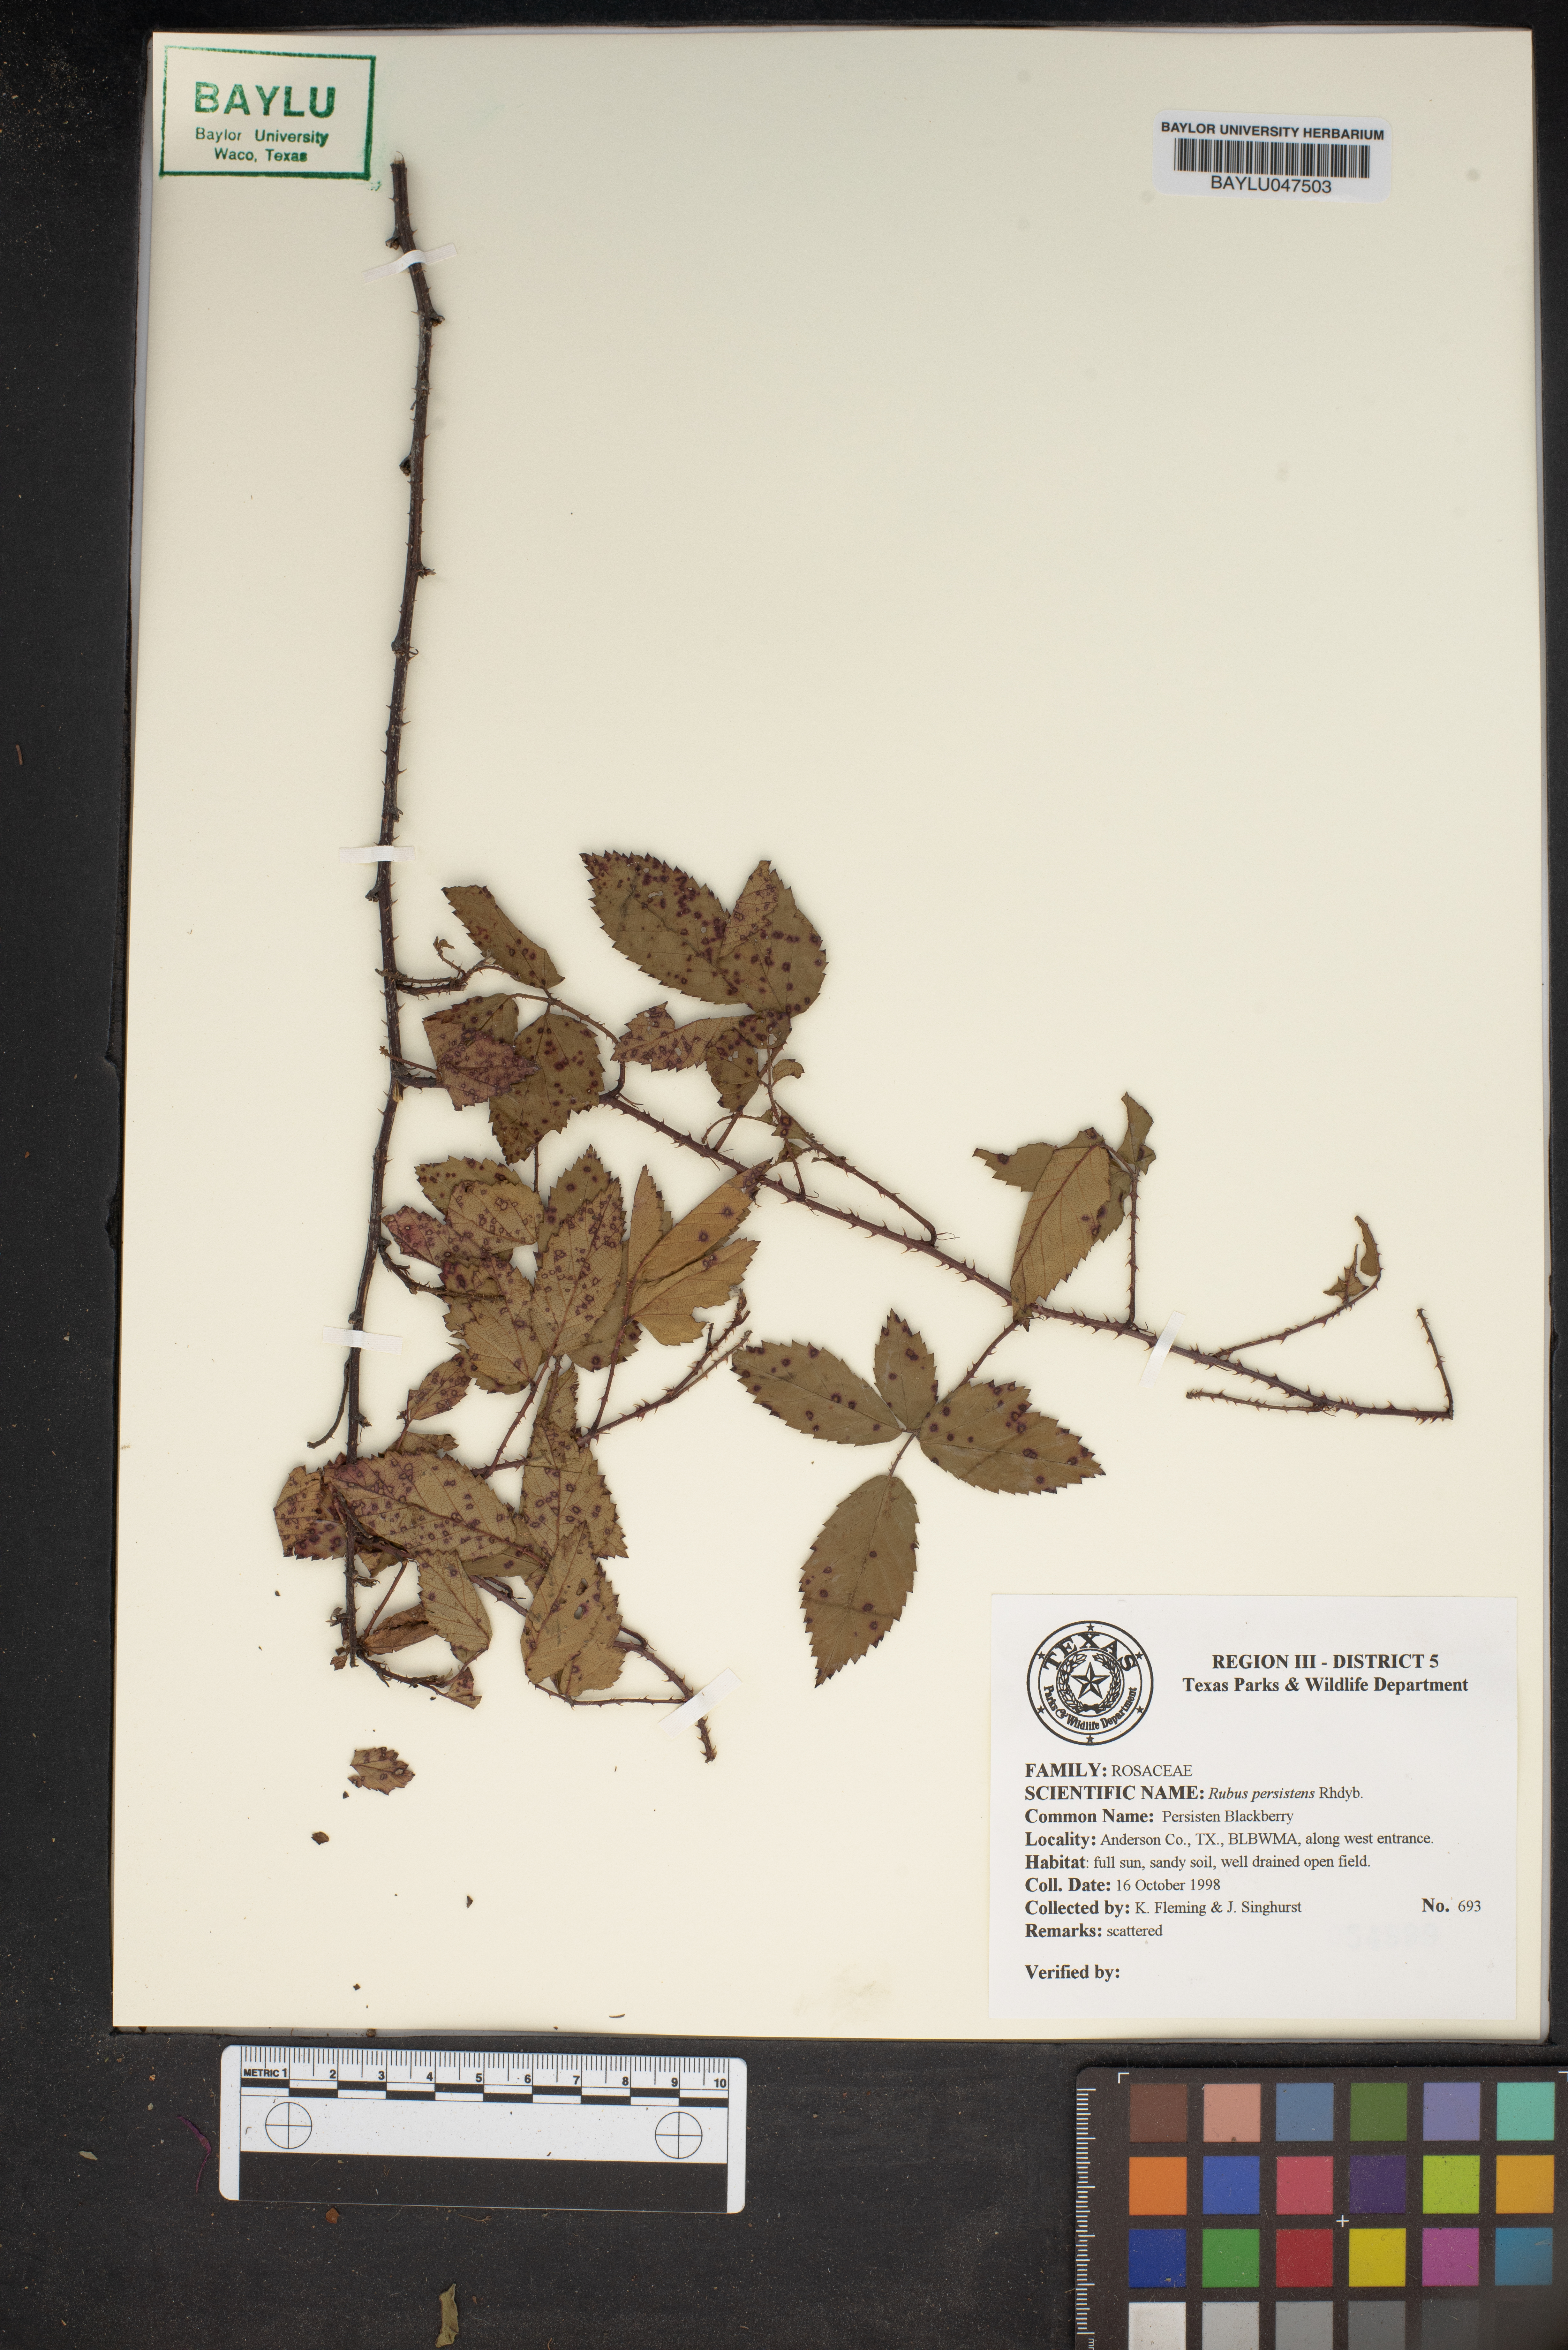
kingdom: Plantae
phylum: Tracheophyta
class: Magnoliopsida
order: Rosales
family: Rosaceae
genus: Rubus
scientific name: Rubus persistens
